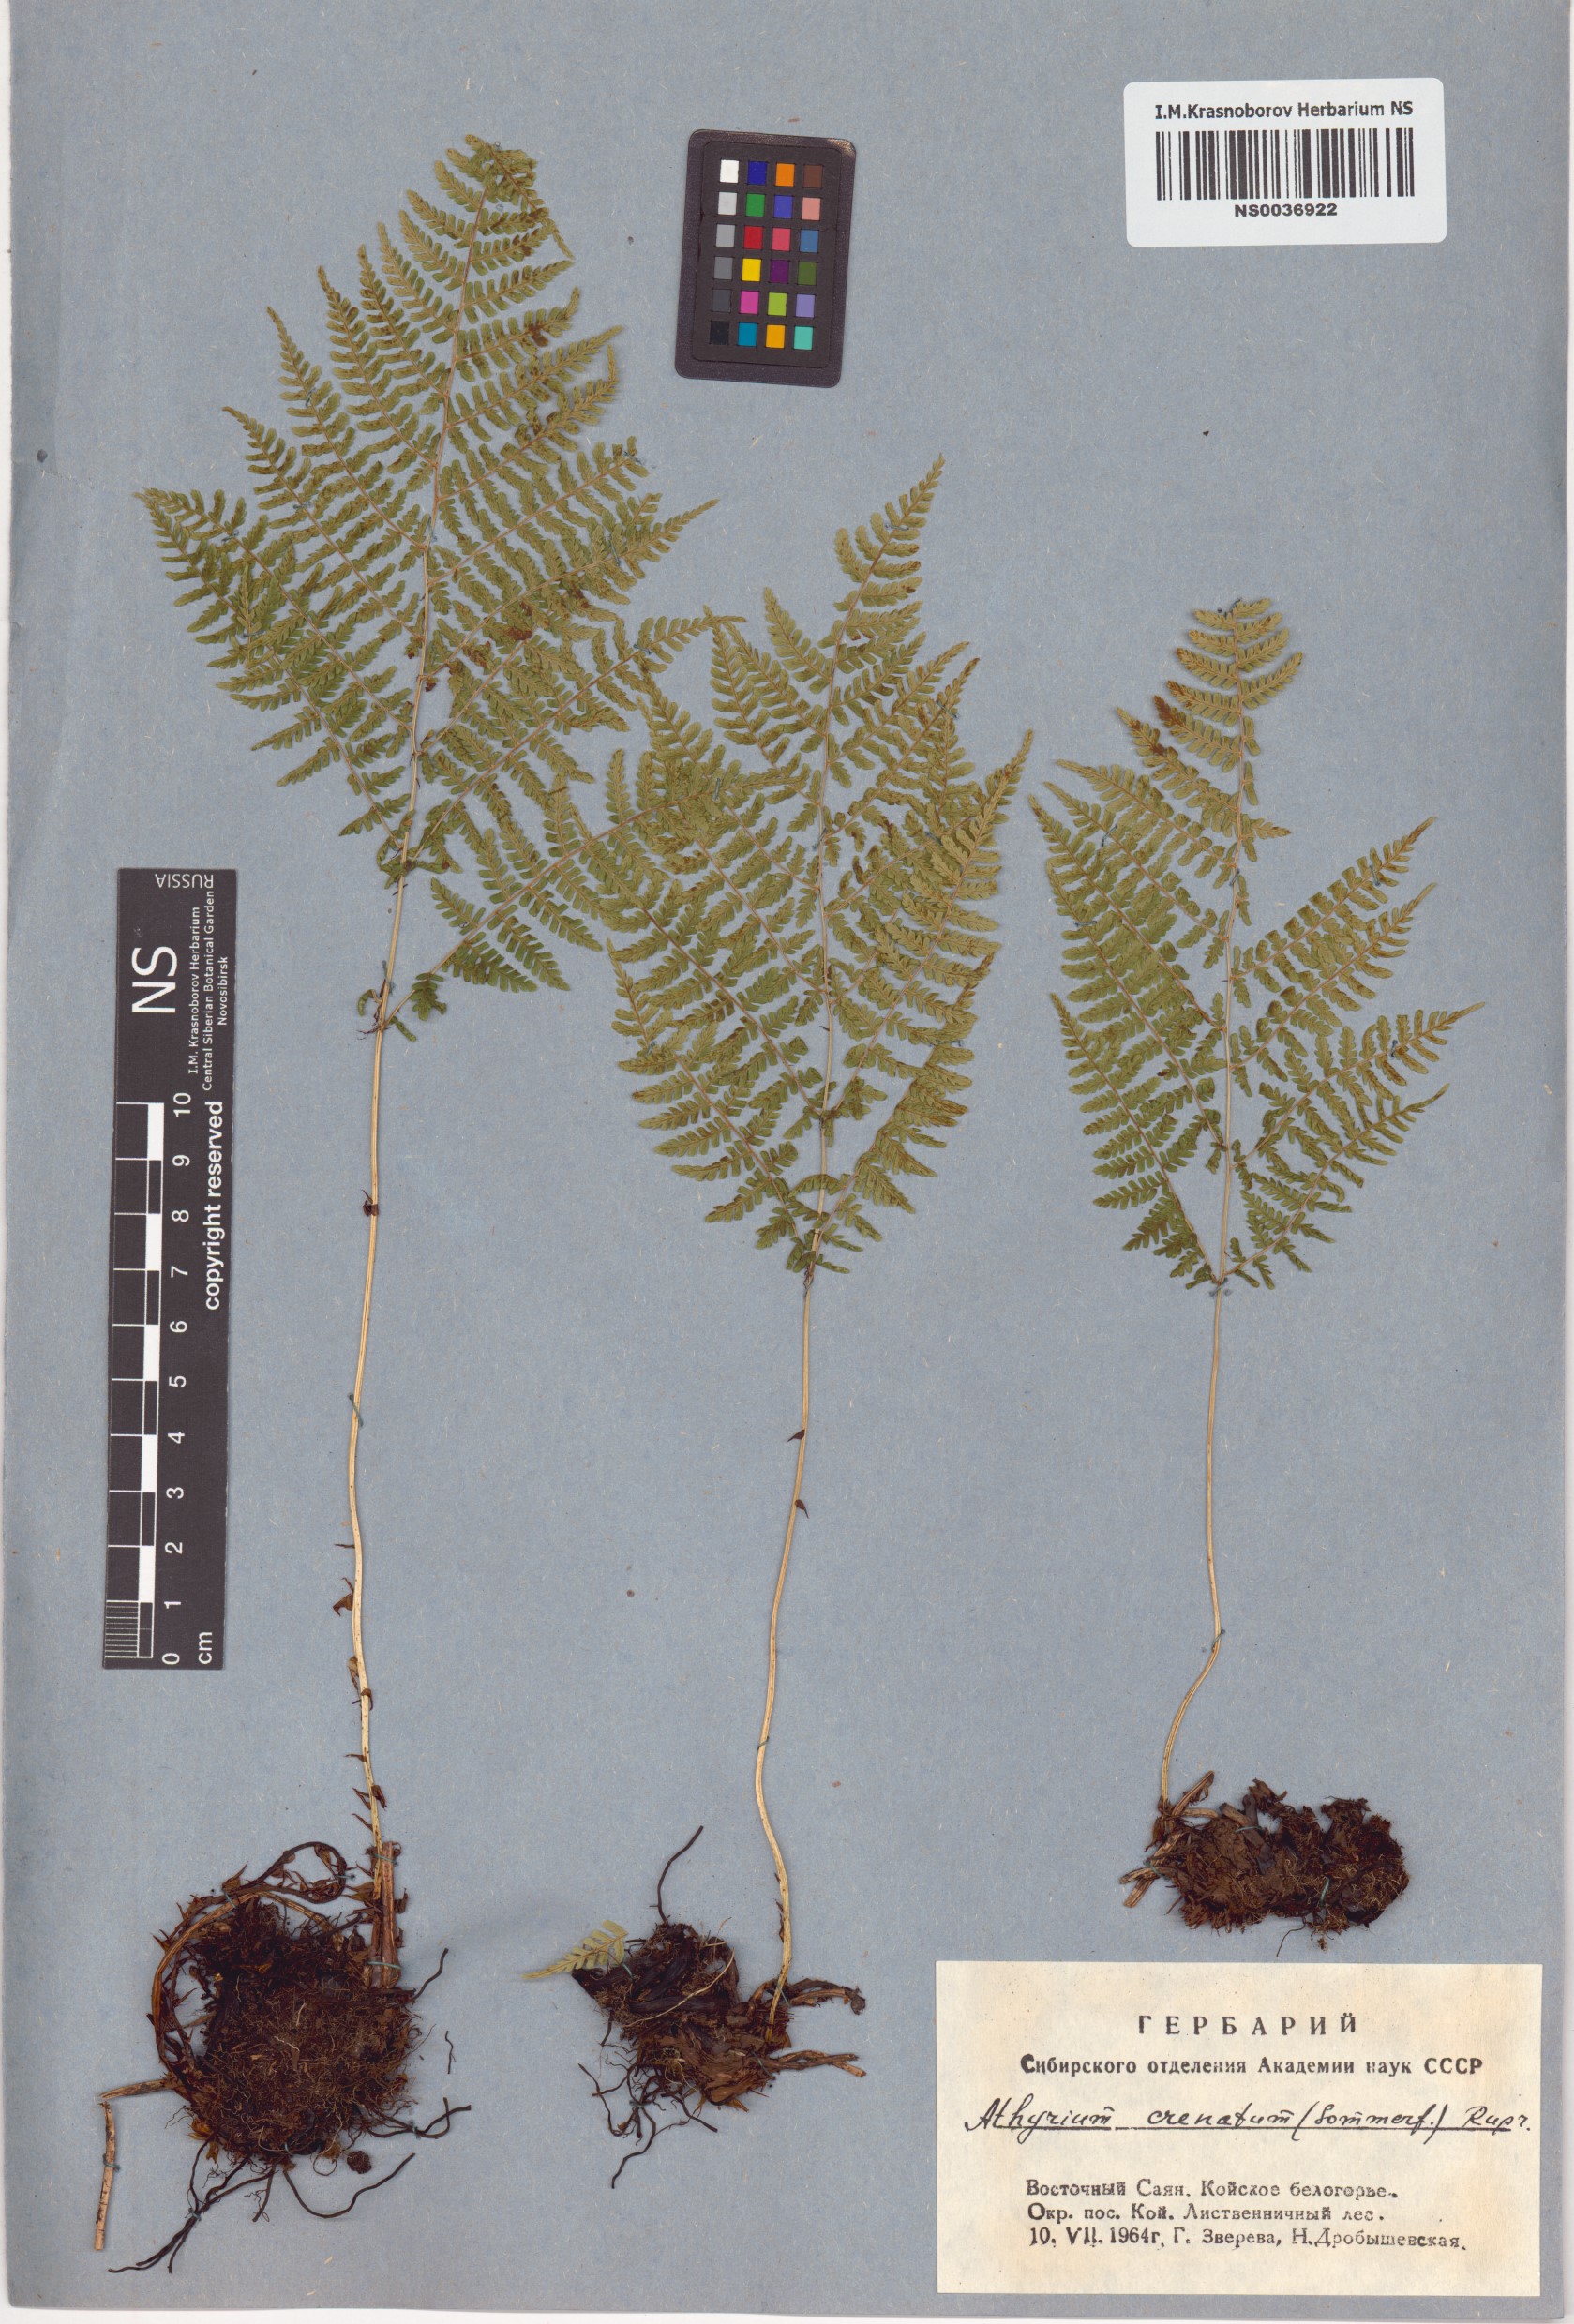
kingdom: Plantae
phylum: Tracheophyta
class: Polypodiopsida
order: Polypodiales
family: Athyriaceae
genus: Diplazium
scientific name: Diplazium sibiricum
